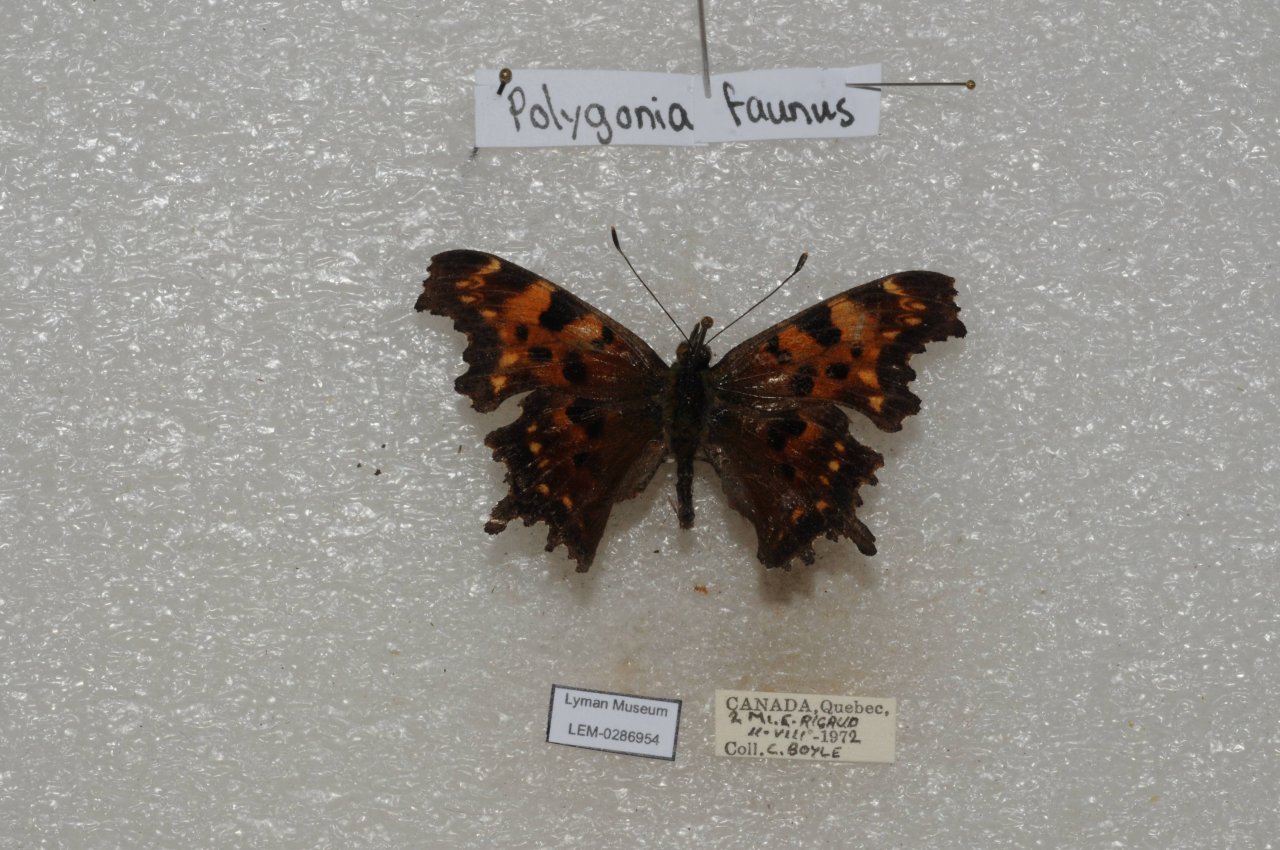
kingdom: Animalia
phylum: Arthropoda
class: Insecta
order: Lepidoptera
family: Nymphalidae
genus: Polygonia
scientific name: Polygonia faunus
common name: Green Comma
